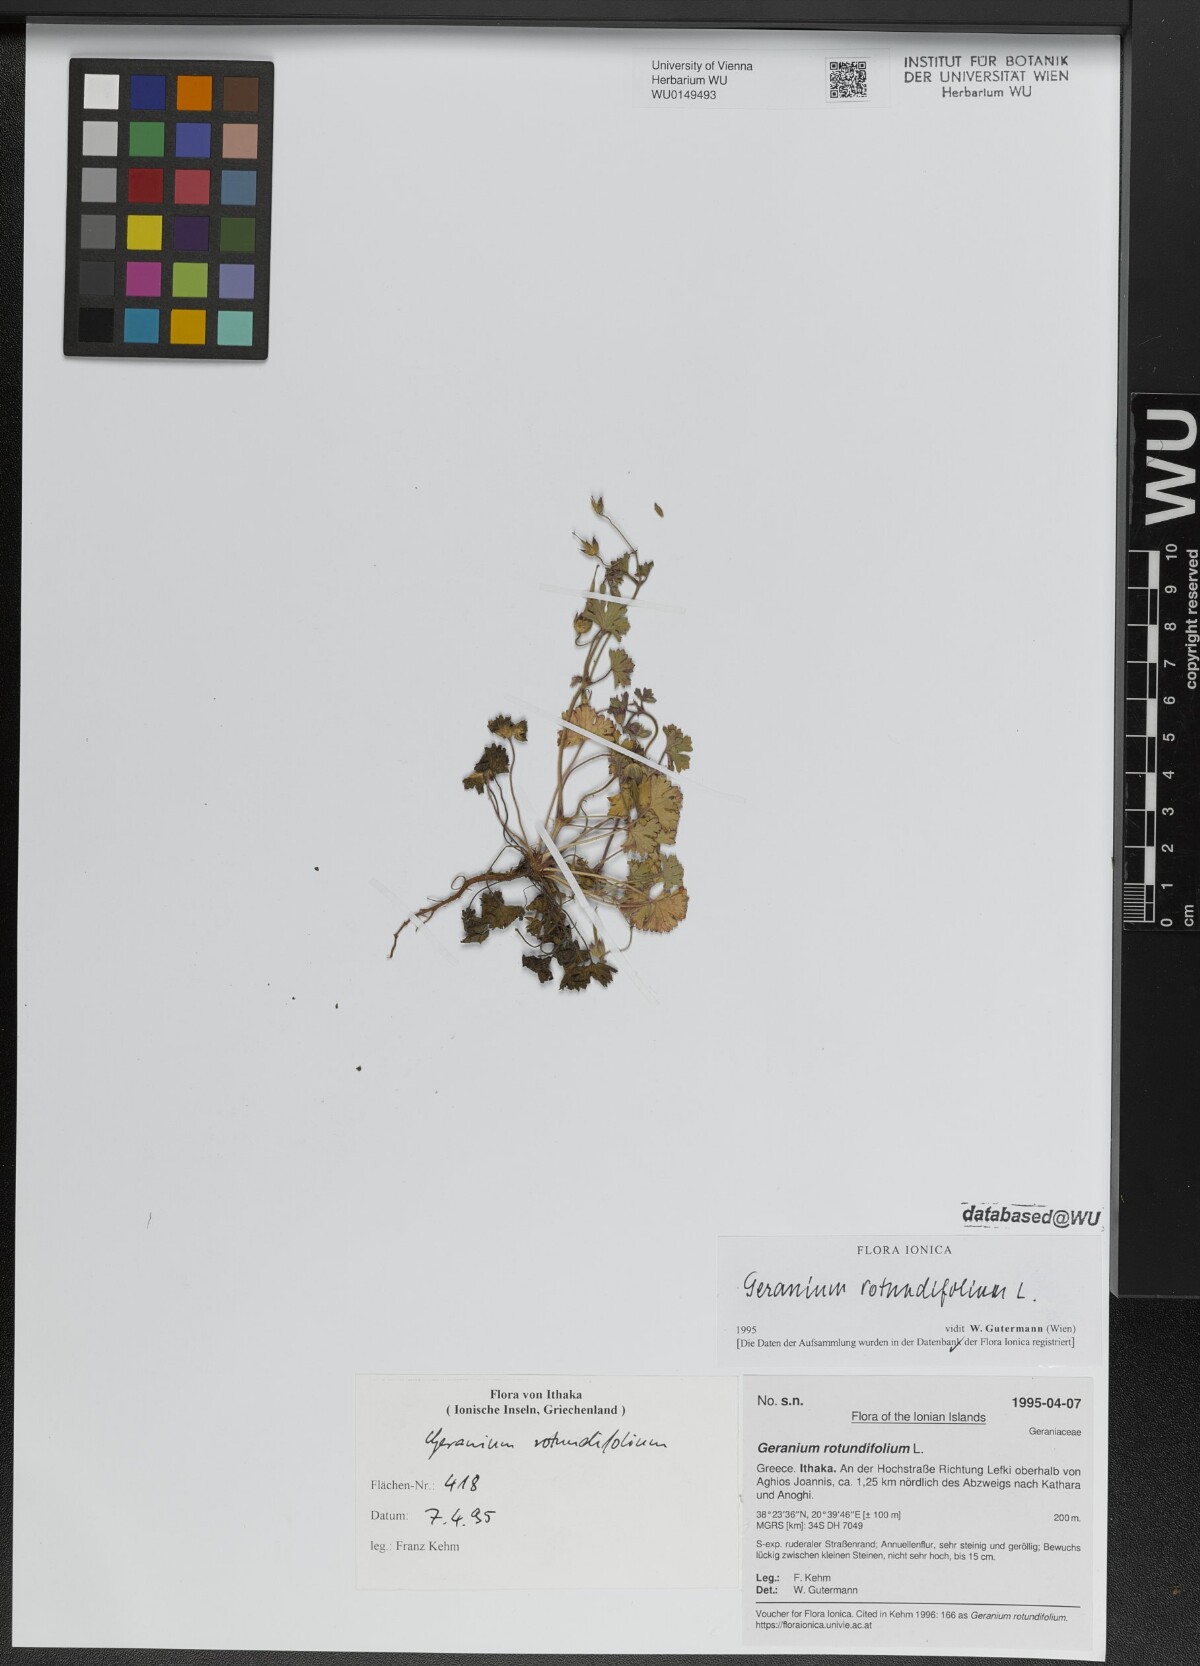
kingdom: Plantae
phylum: Tracheophyta
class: Magnoliopsida
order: Geraniales
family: Geraniaceae
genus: Geranium
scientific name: Geranium rotundifolium
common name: Round-leaved crane's-bill
